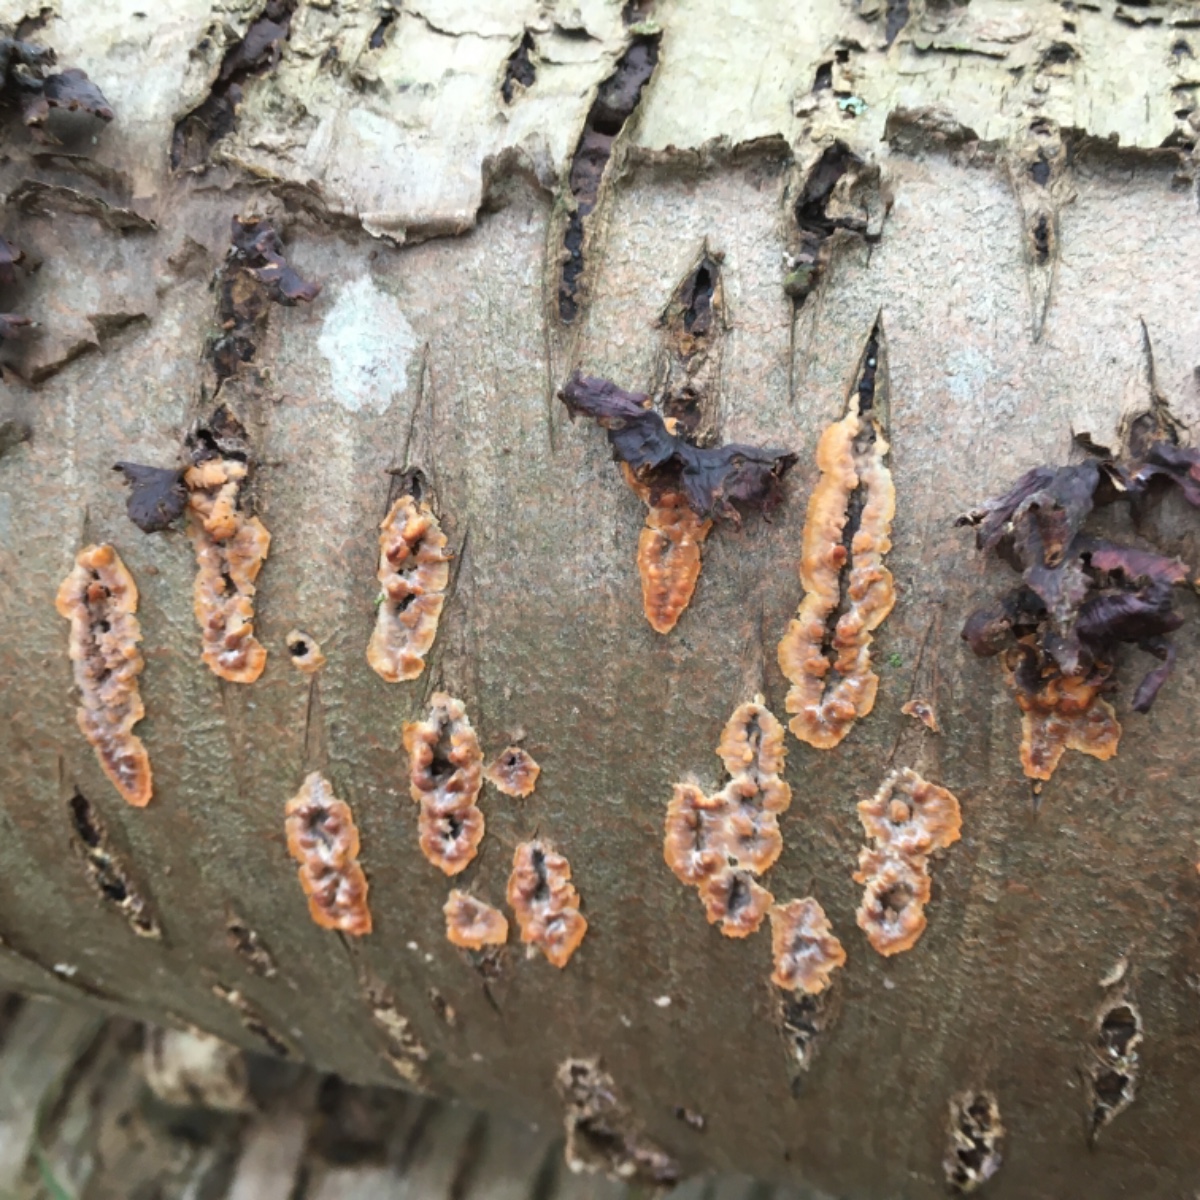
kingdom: Fungi
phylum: Basidiomycota
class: Agaricomycetes
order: Polyporales
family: Meruliaceae
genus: Phlebia
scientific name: Phlebia radiata
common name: stråle-åresvamp
